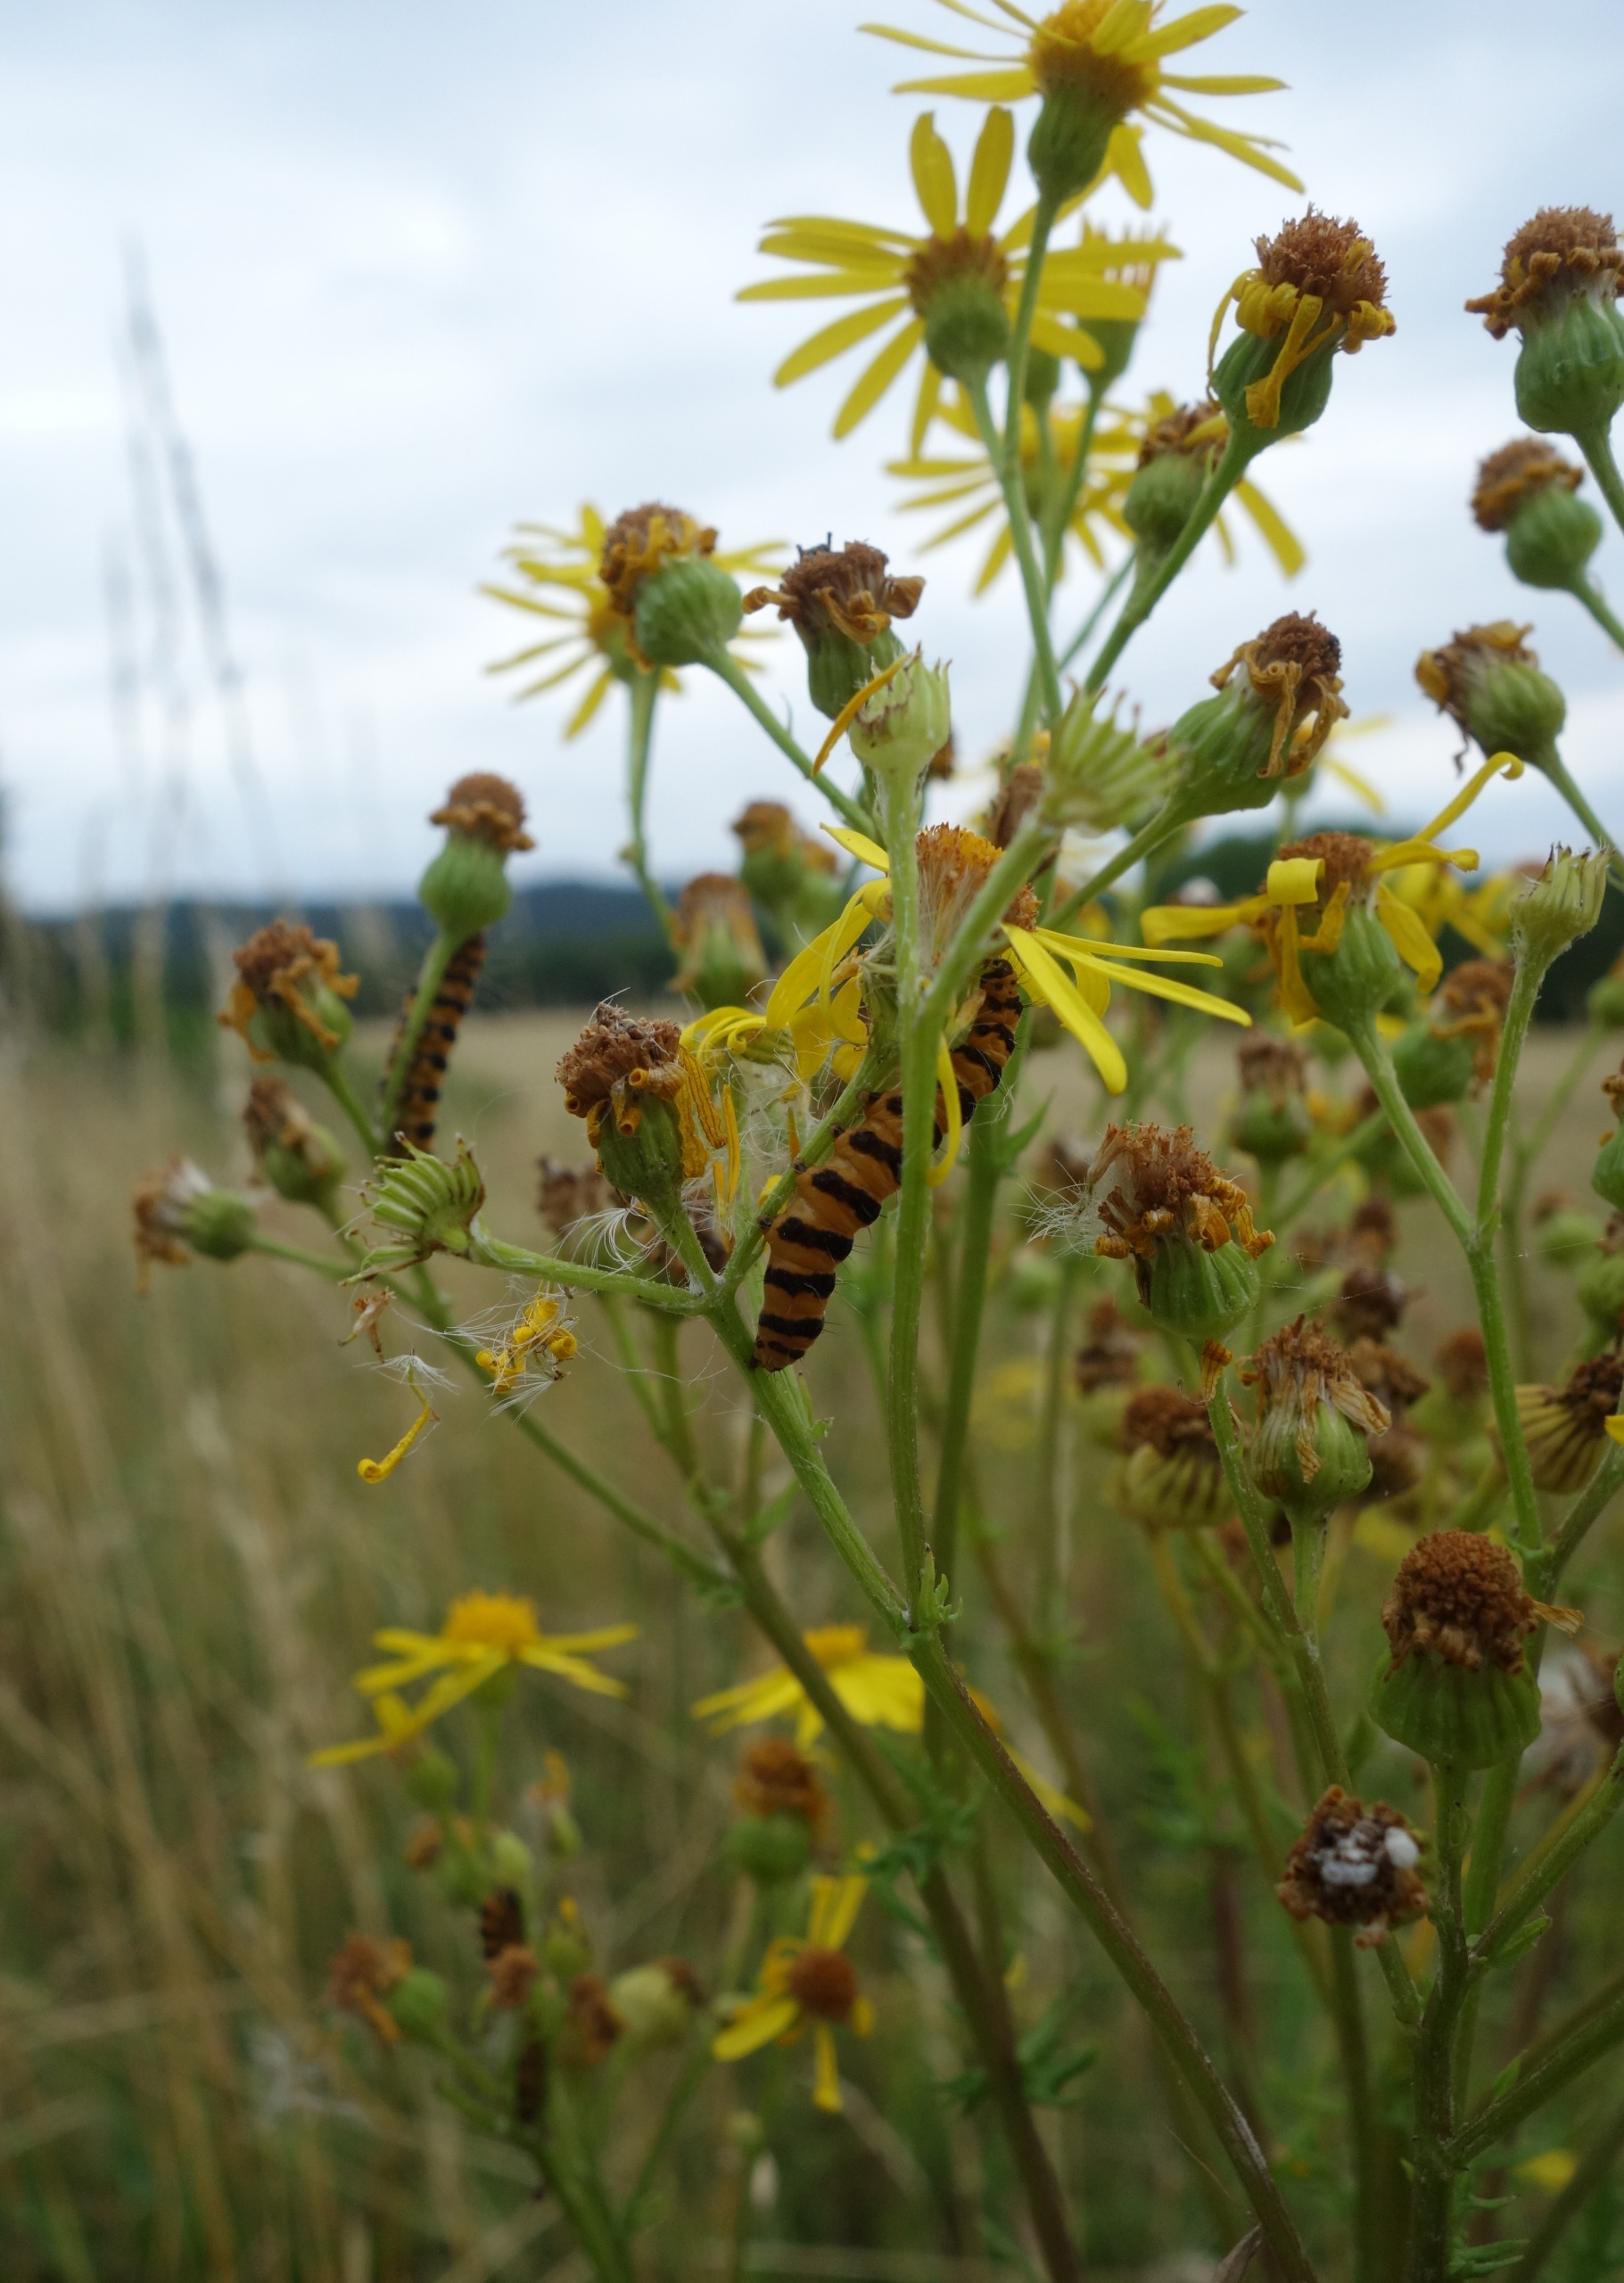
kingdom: Animalia
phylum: Arthropoda
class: Insecta
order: Lepidoptera
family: Erebidae
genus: Tyria
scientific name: Tyria jacobaeae
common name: Blodplet
